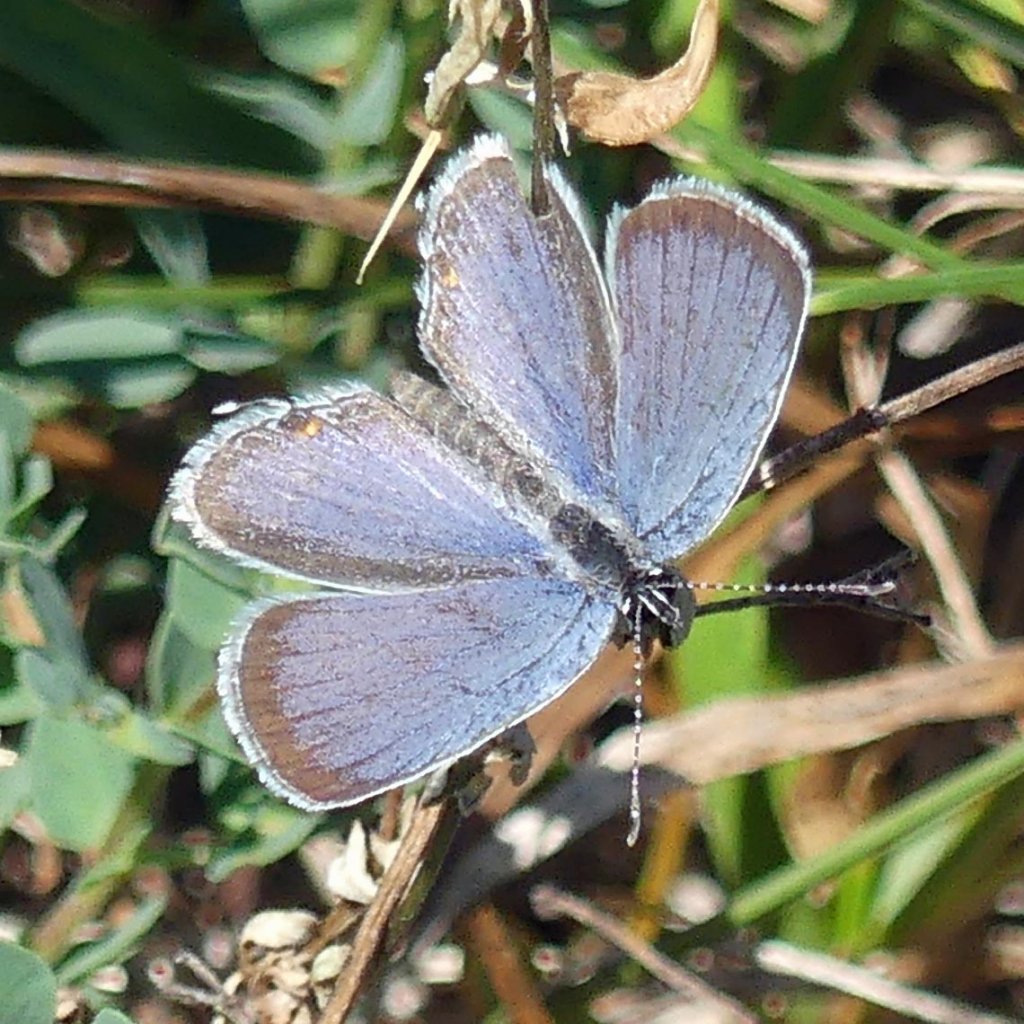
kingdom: Animalia
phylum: Arthropoda
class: Insecta
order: Lepidoptera
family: Lycaenidae
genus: Elkalyce
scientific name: Elkalyce comyntas
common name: Eastern Tailed-Blue
